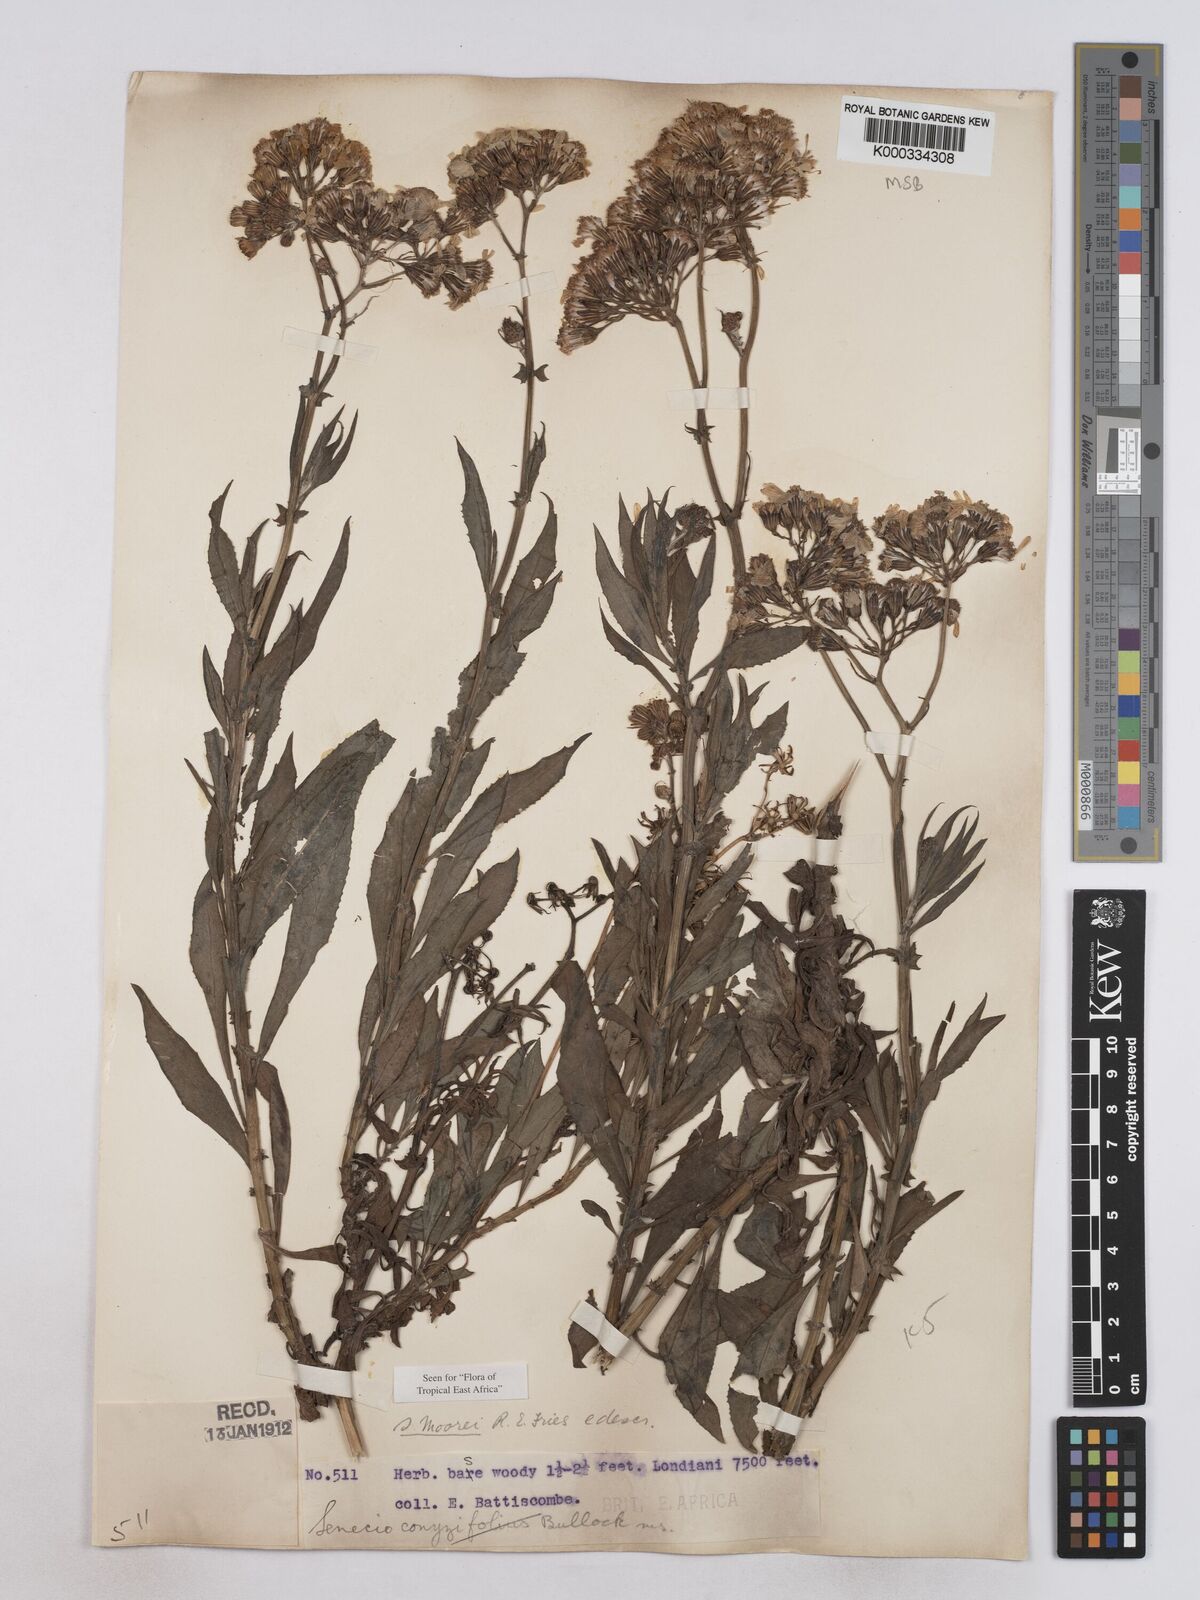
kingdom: Plantae
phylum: Tracheophyta
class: Magnoliopsida
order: Asterales
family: Asteraceae
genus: Senecio
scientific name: Senecio moorei
